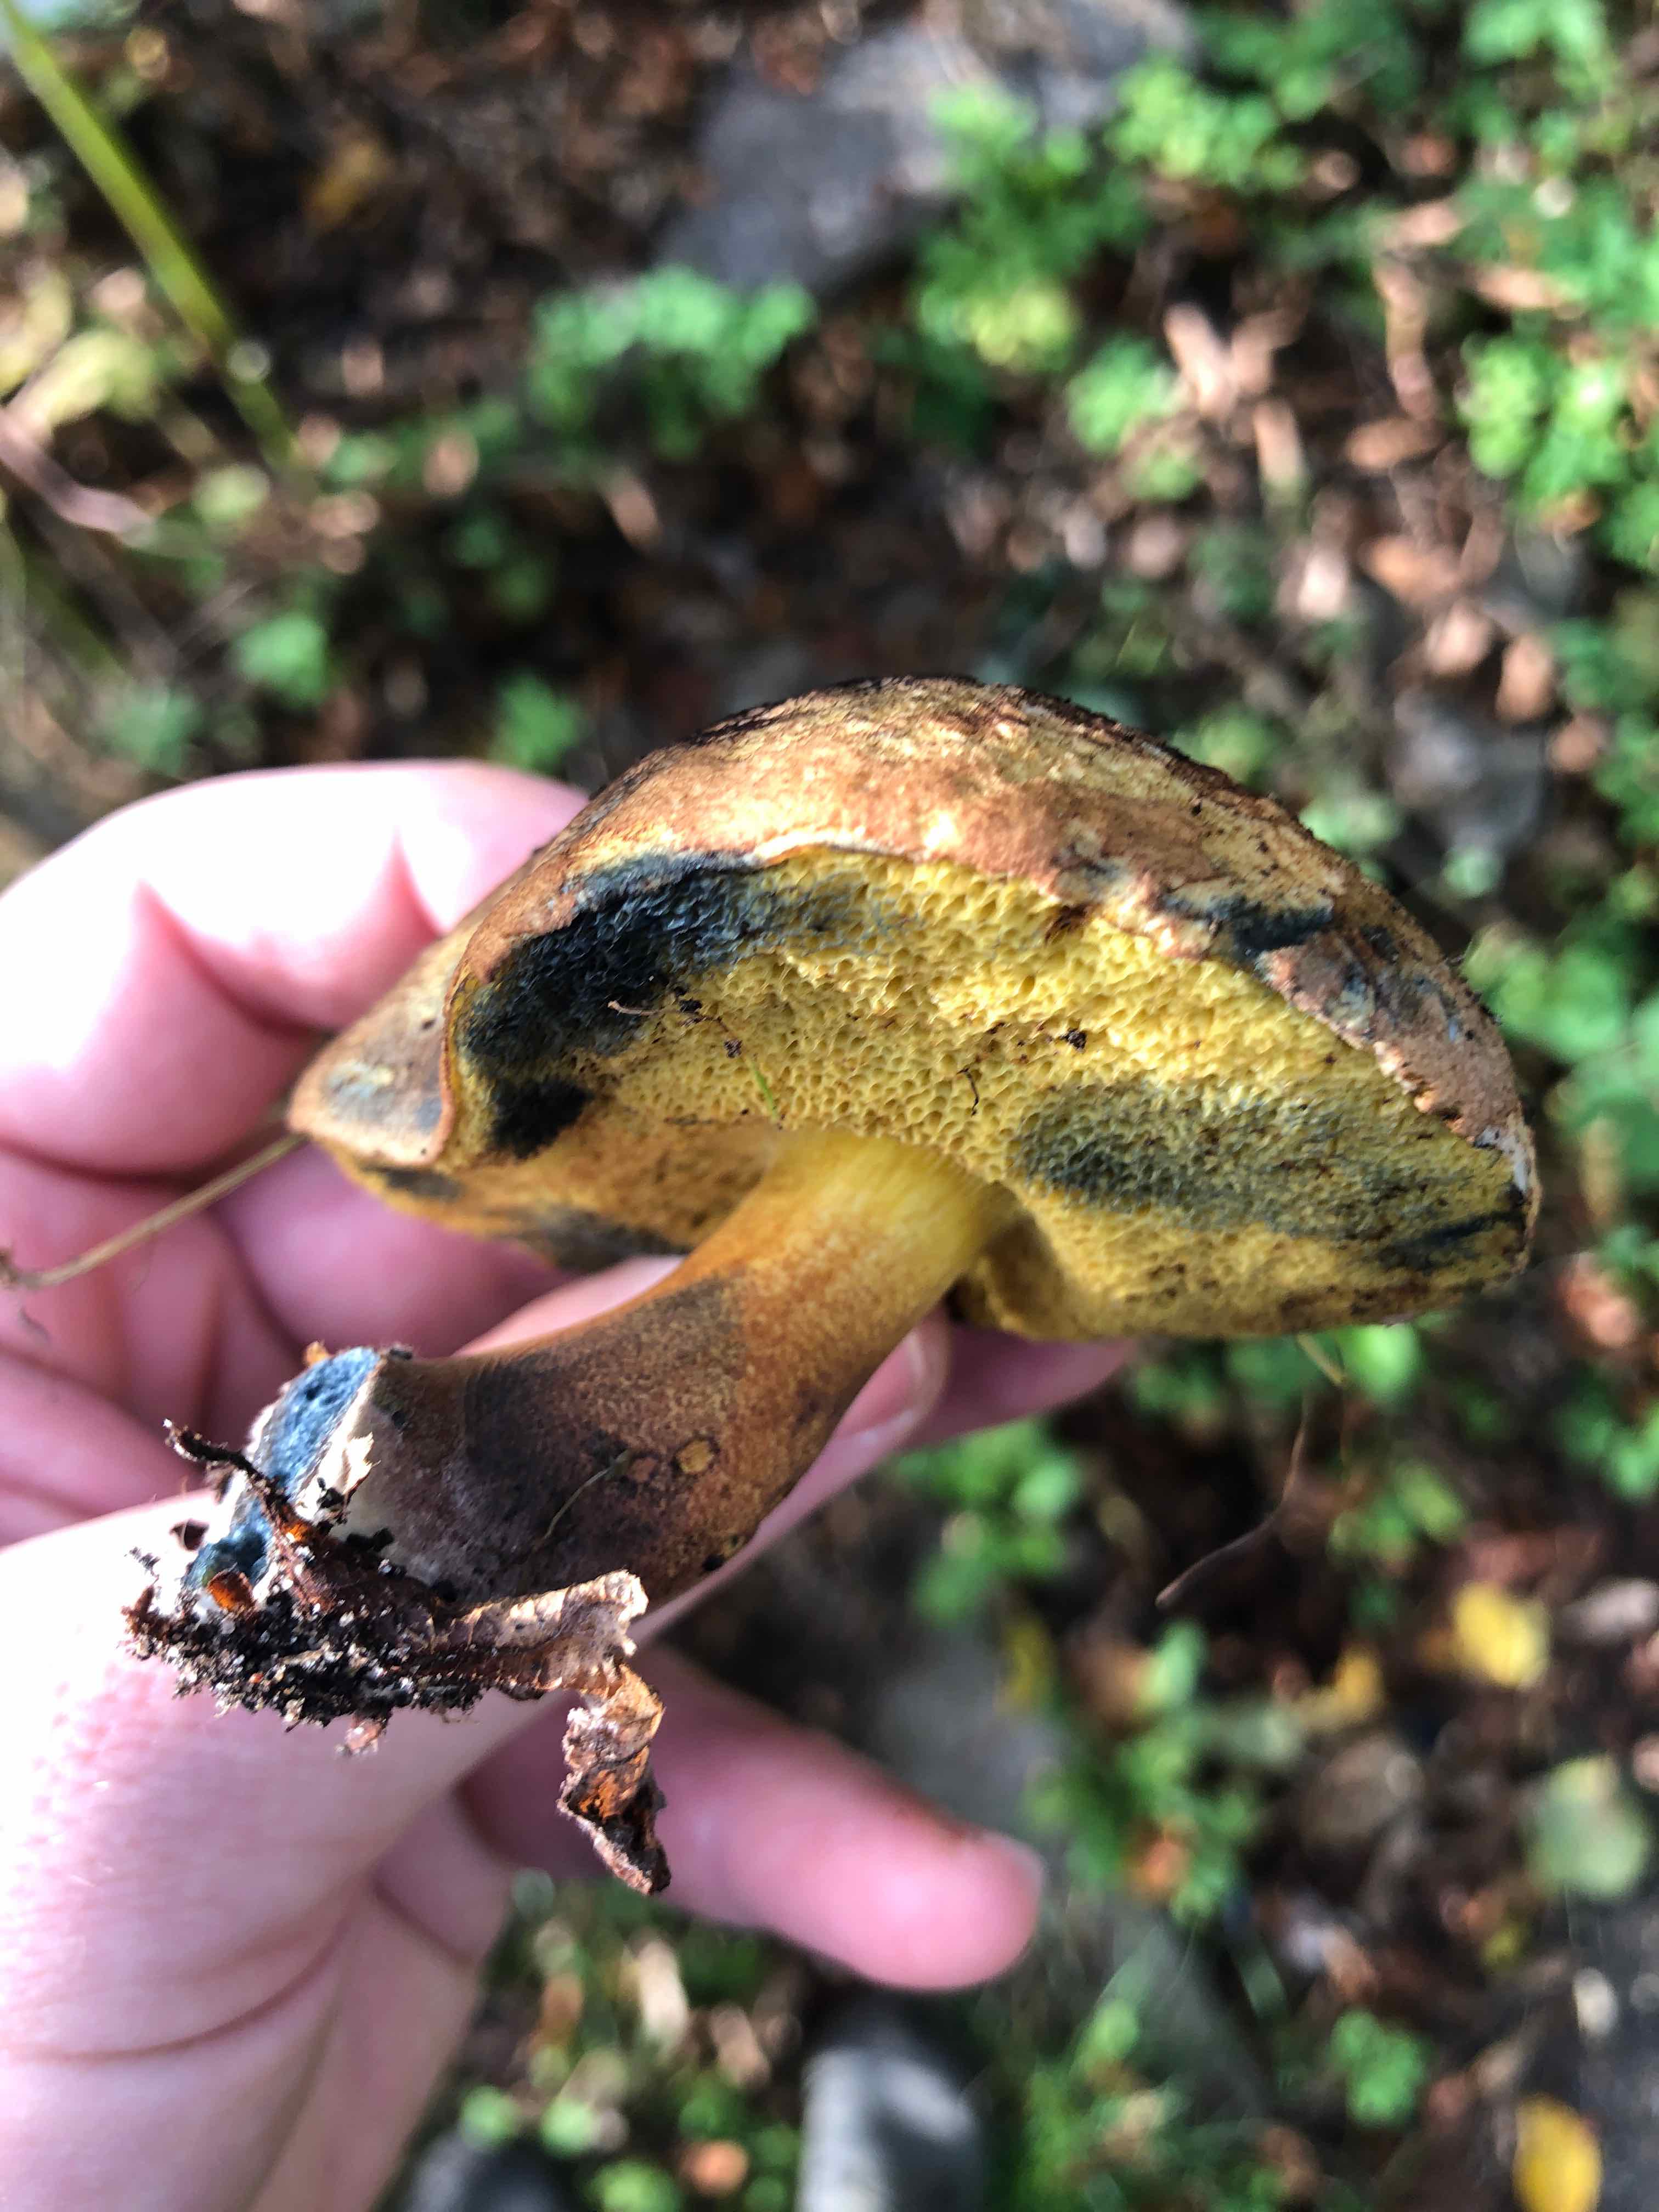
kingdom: Fungi
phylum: Basidiomycota
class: Agaricomycetes
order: Boletales
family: Boletaceae
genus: Cyanoboletus
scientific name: Cyanoboletus pulverulentus
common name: sortblånende rørhat
